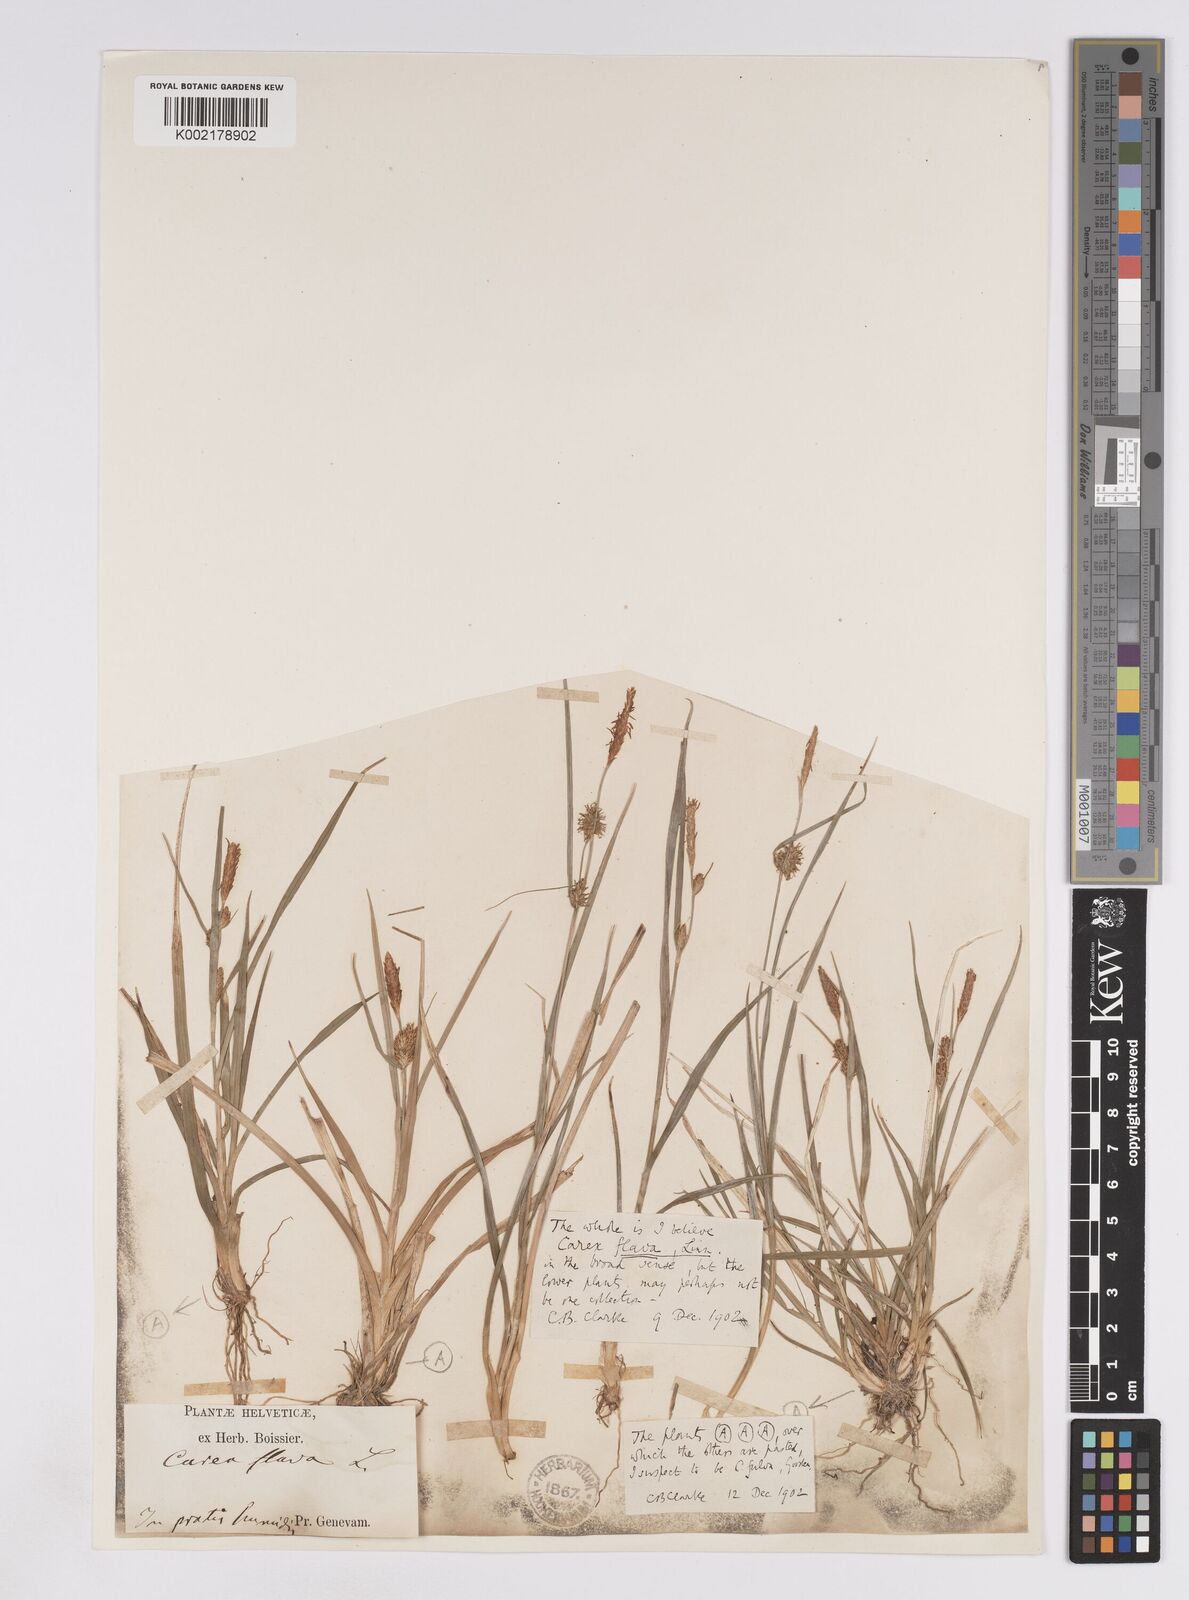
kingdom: Plantae
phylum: Tracheophyta
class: Liliopsida
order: Poales
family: Cyperaceae
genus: Carex
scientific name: Carex lepidocarpa
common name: Long-stalked yellow-sedge
